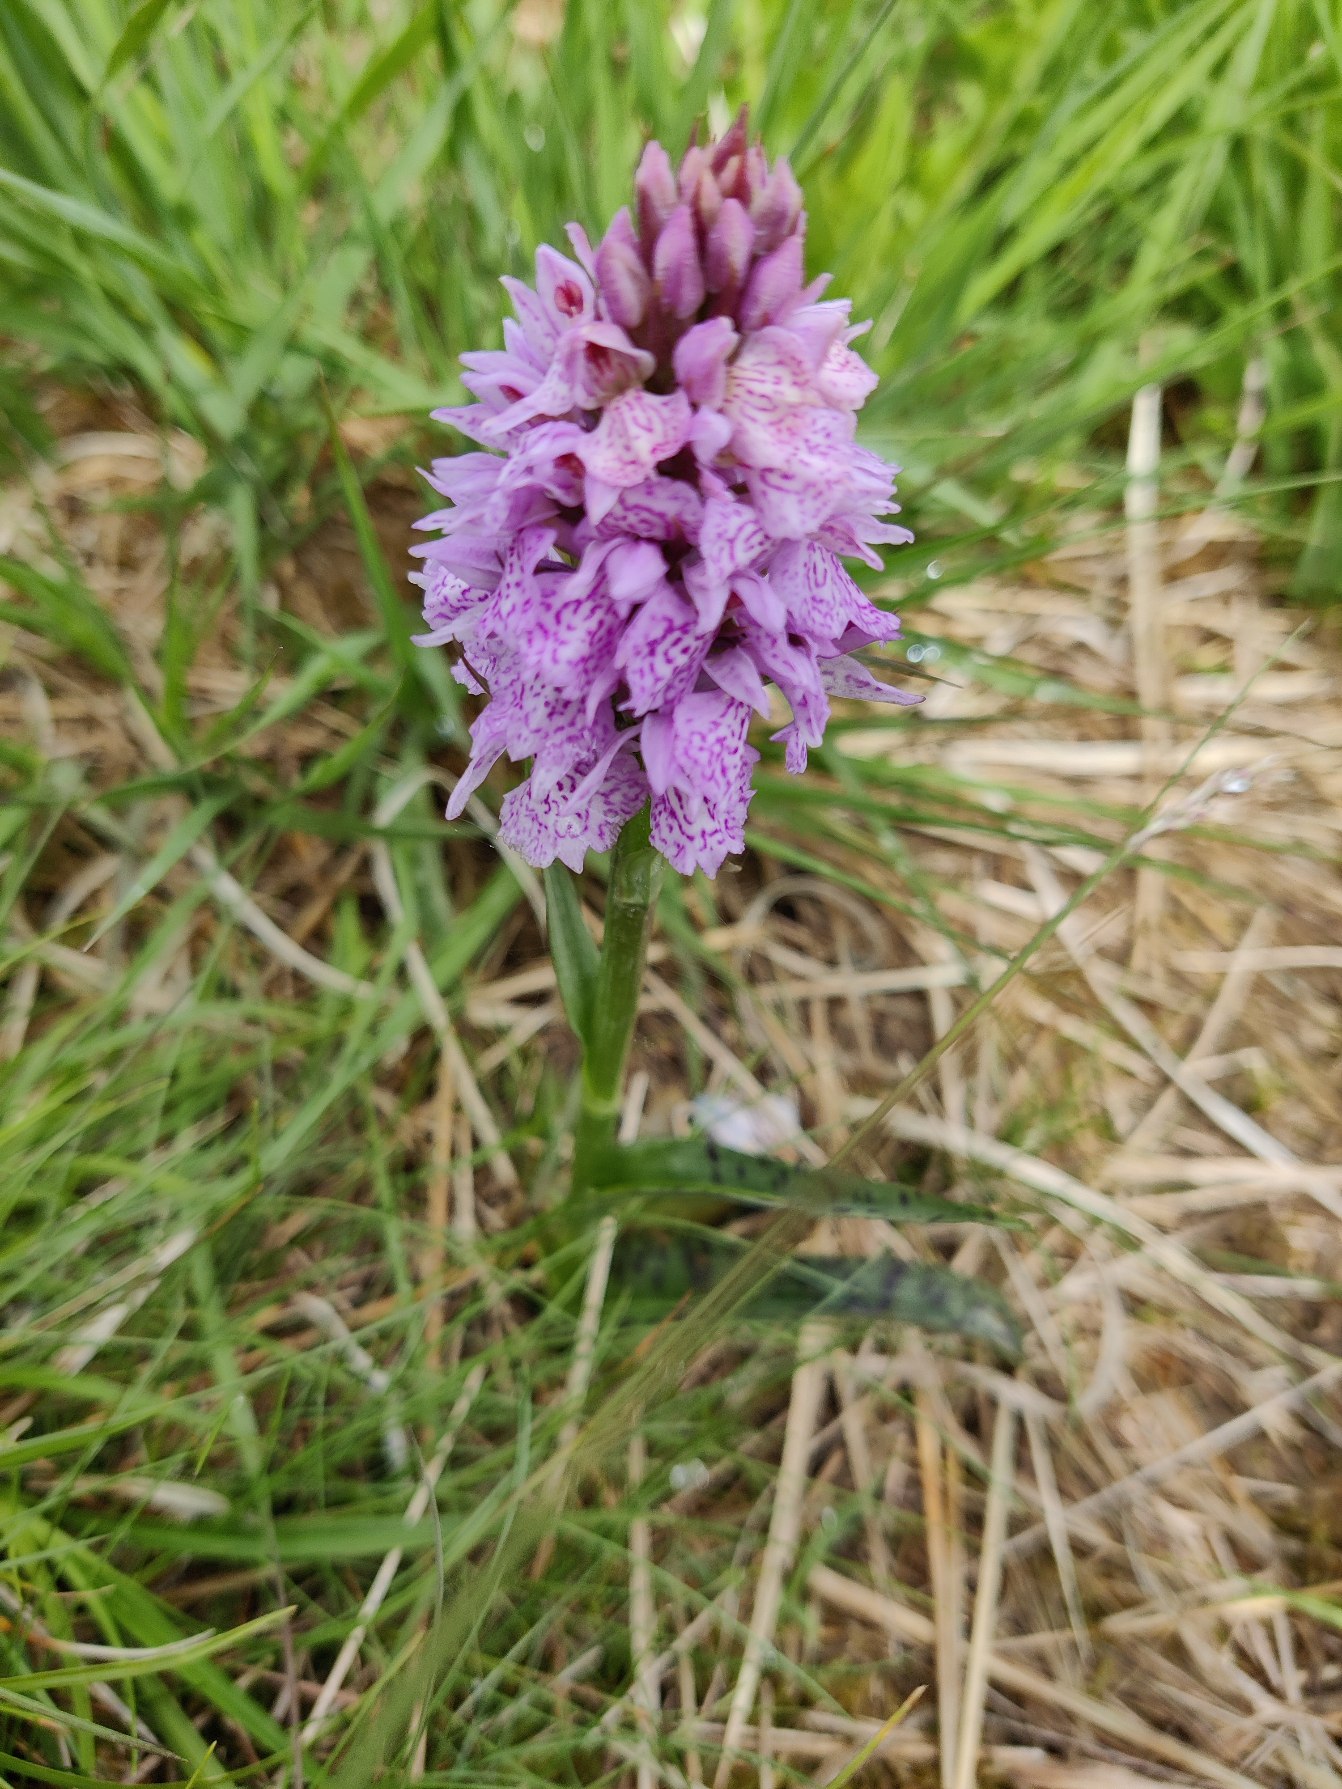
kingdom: Plantae
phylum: Tracheophyta
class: Liliopsida
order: Asparagales
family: Orchidaceae
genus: Dactylorhiza
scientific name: Dactylorhiza maculata
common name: Plettet gøgeurt
